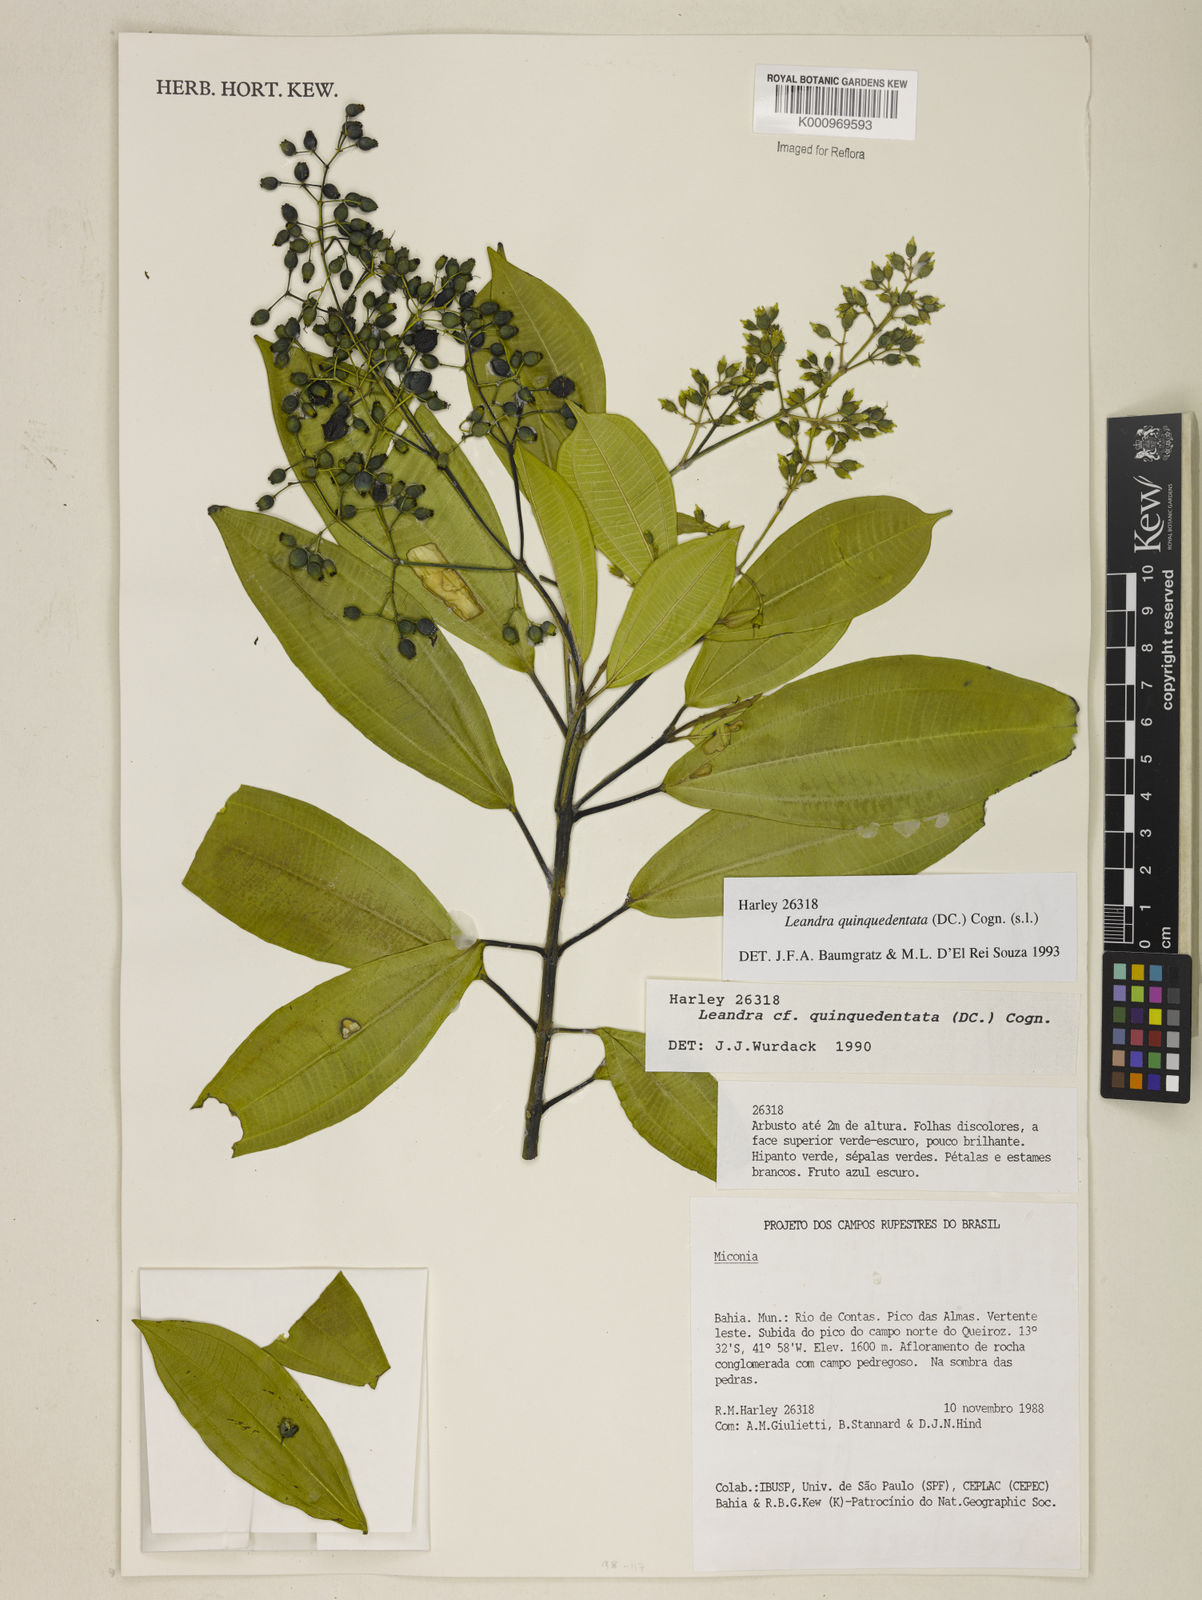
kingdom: Plantae
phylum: Tracheophyta
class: Magnoliopsida
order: Myrtales
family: Melastomataceae
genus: Miconia
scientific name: Miconia quinquedentata
